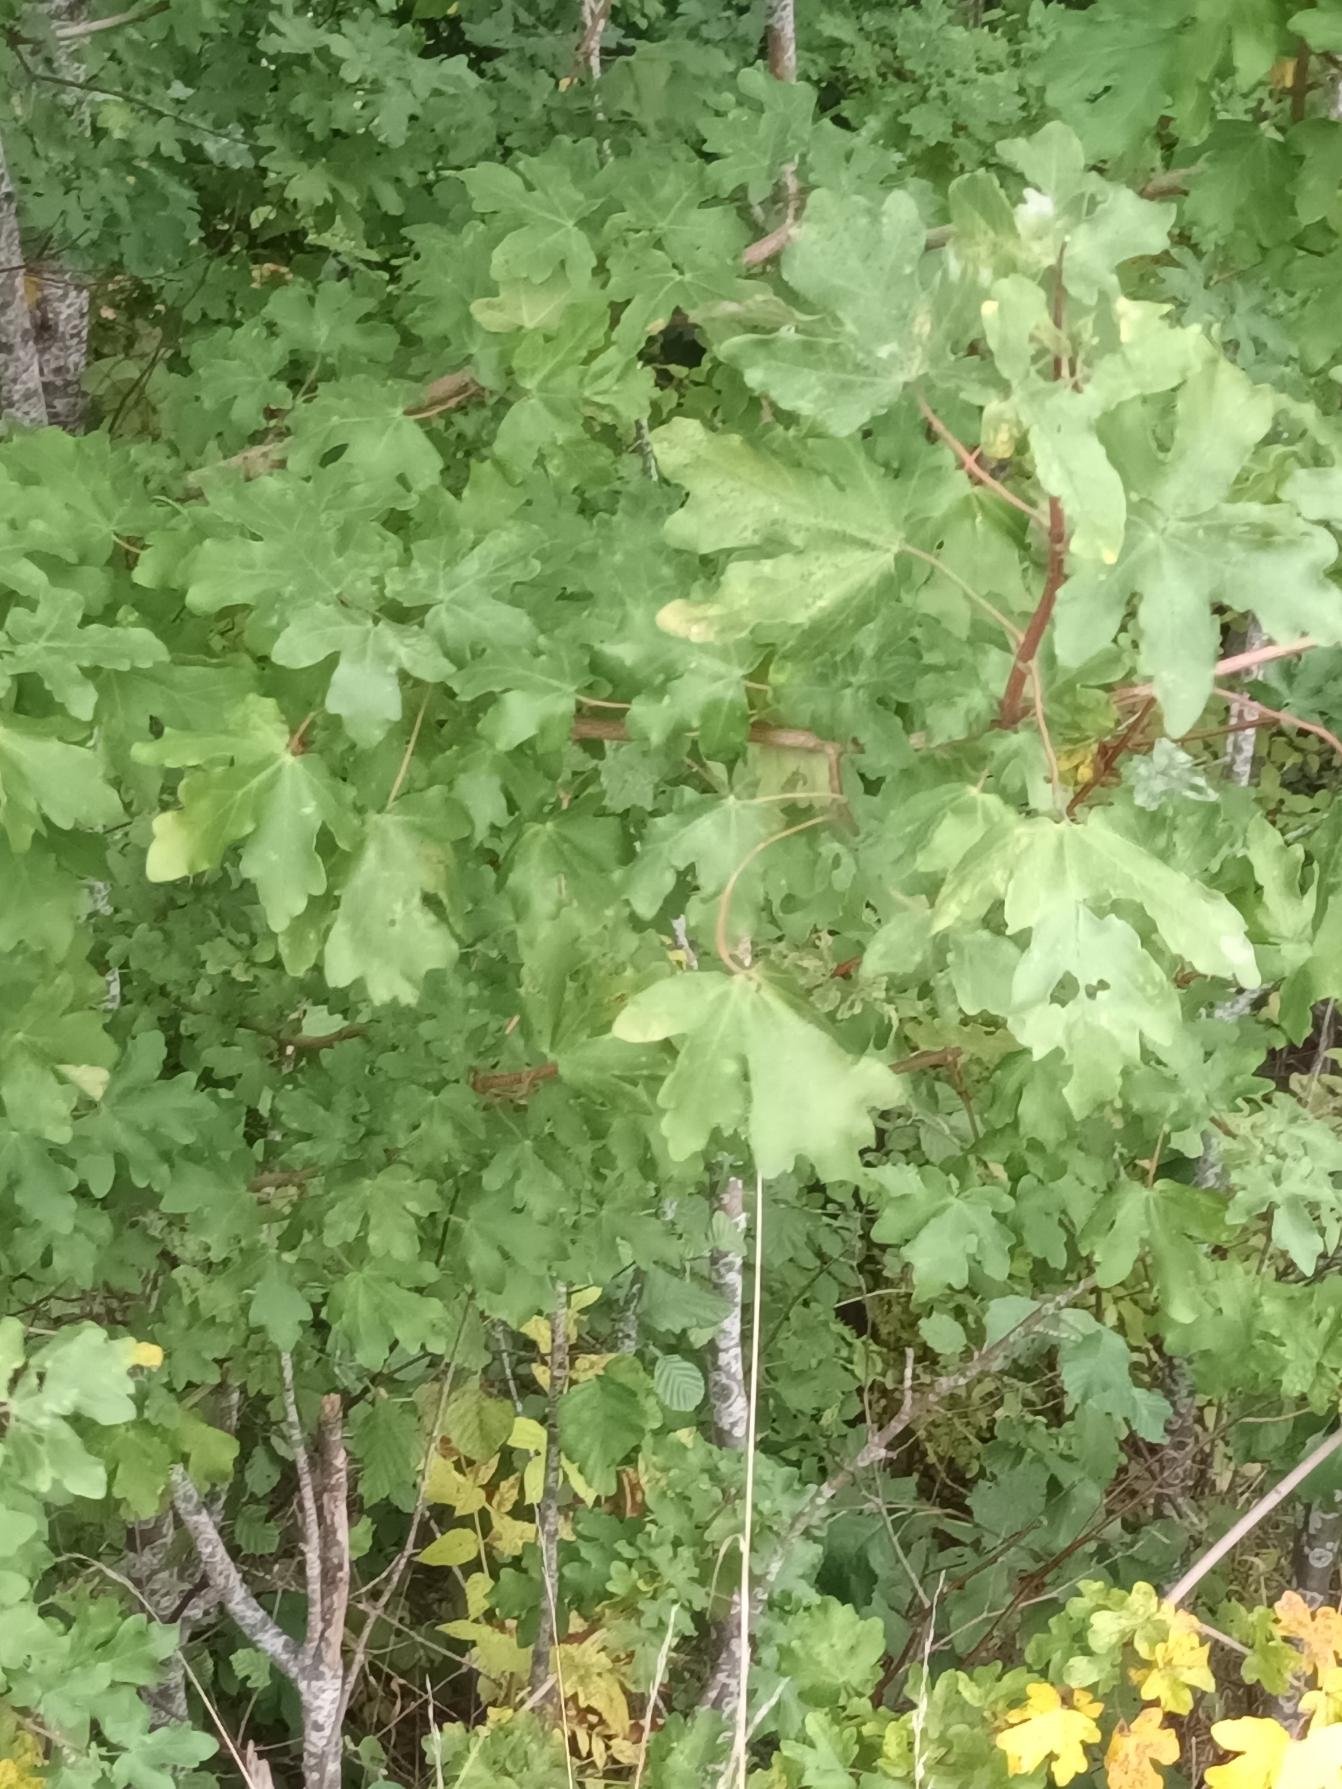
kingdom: Plantae
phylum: Tracheophyta
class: Magnoliopsida
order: Sapindales
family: Sapindaceae
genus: Acer
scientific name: Acer campestre
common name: Navr
